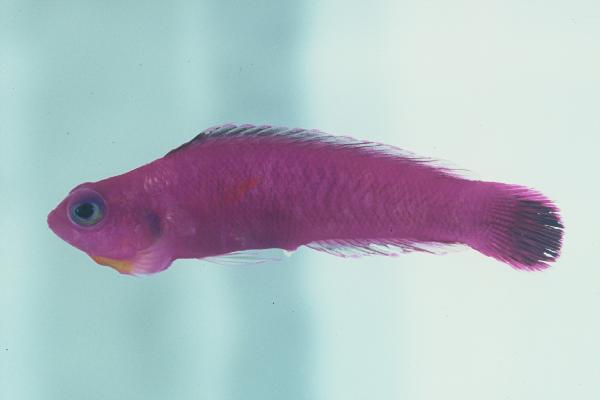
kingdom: Animalia
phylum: Chordata
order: Perciformes
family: Pseudochromidae
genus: Chlidichthys
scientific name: Chlidichthys johnvoelckeri
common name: Cerise dottyback
